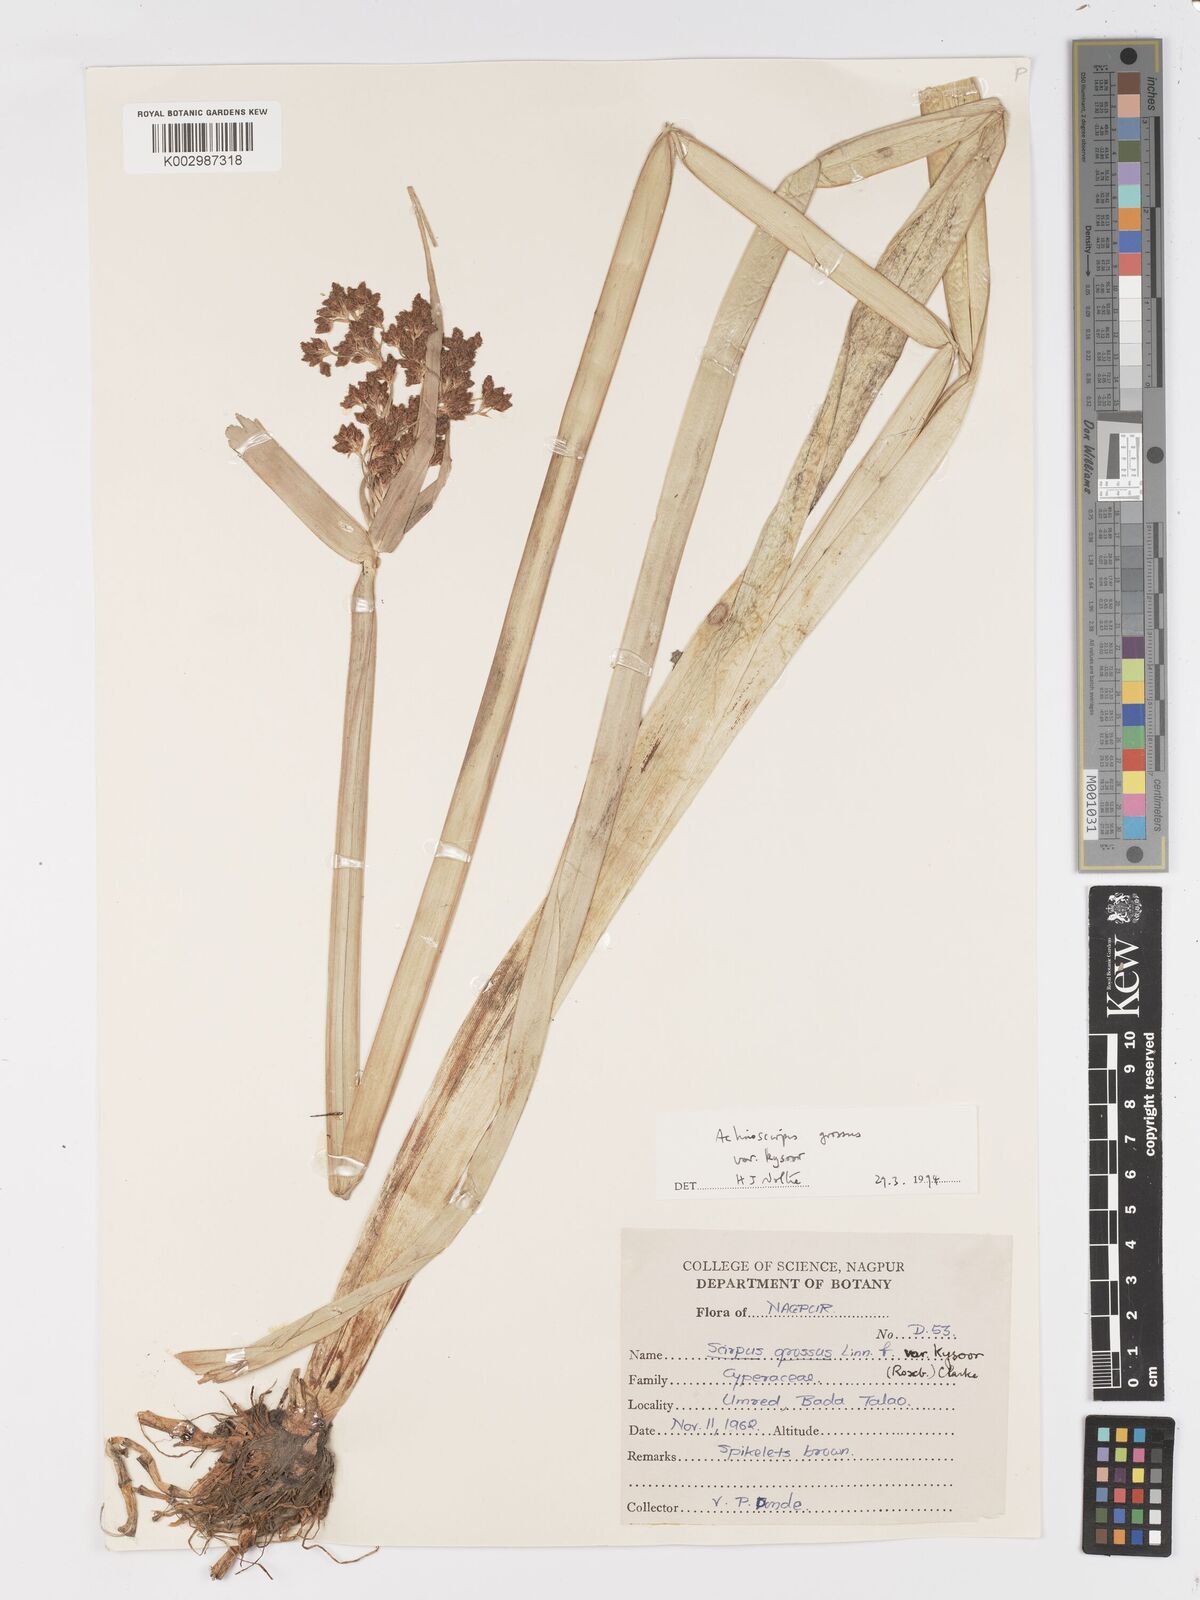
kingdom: Plantae
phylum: Tracheophyta
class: Liliopsida
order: Poales
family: Cyperaceae
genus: Actinoscirpus
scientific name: Actinoscirpus grossus
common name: Giant bur rush
